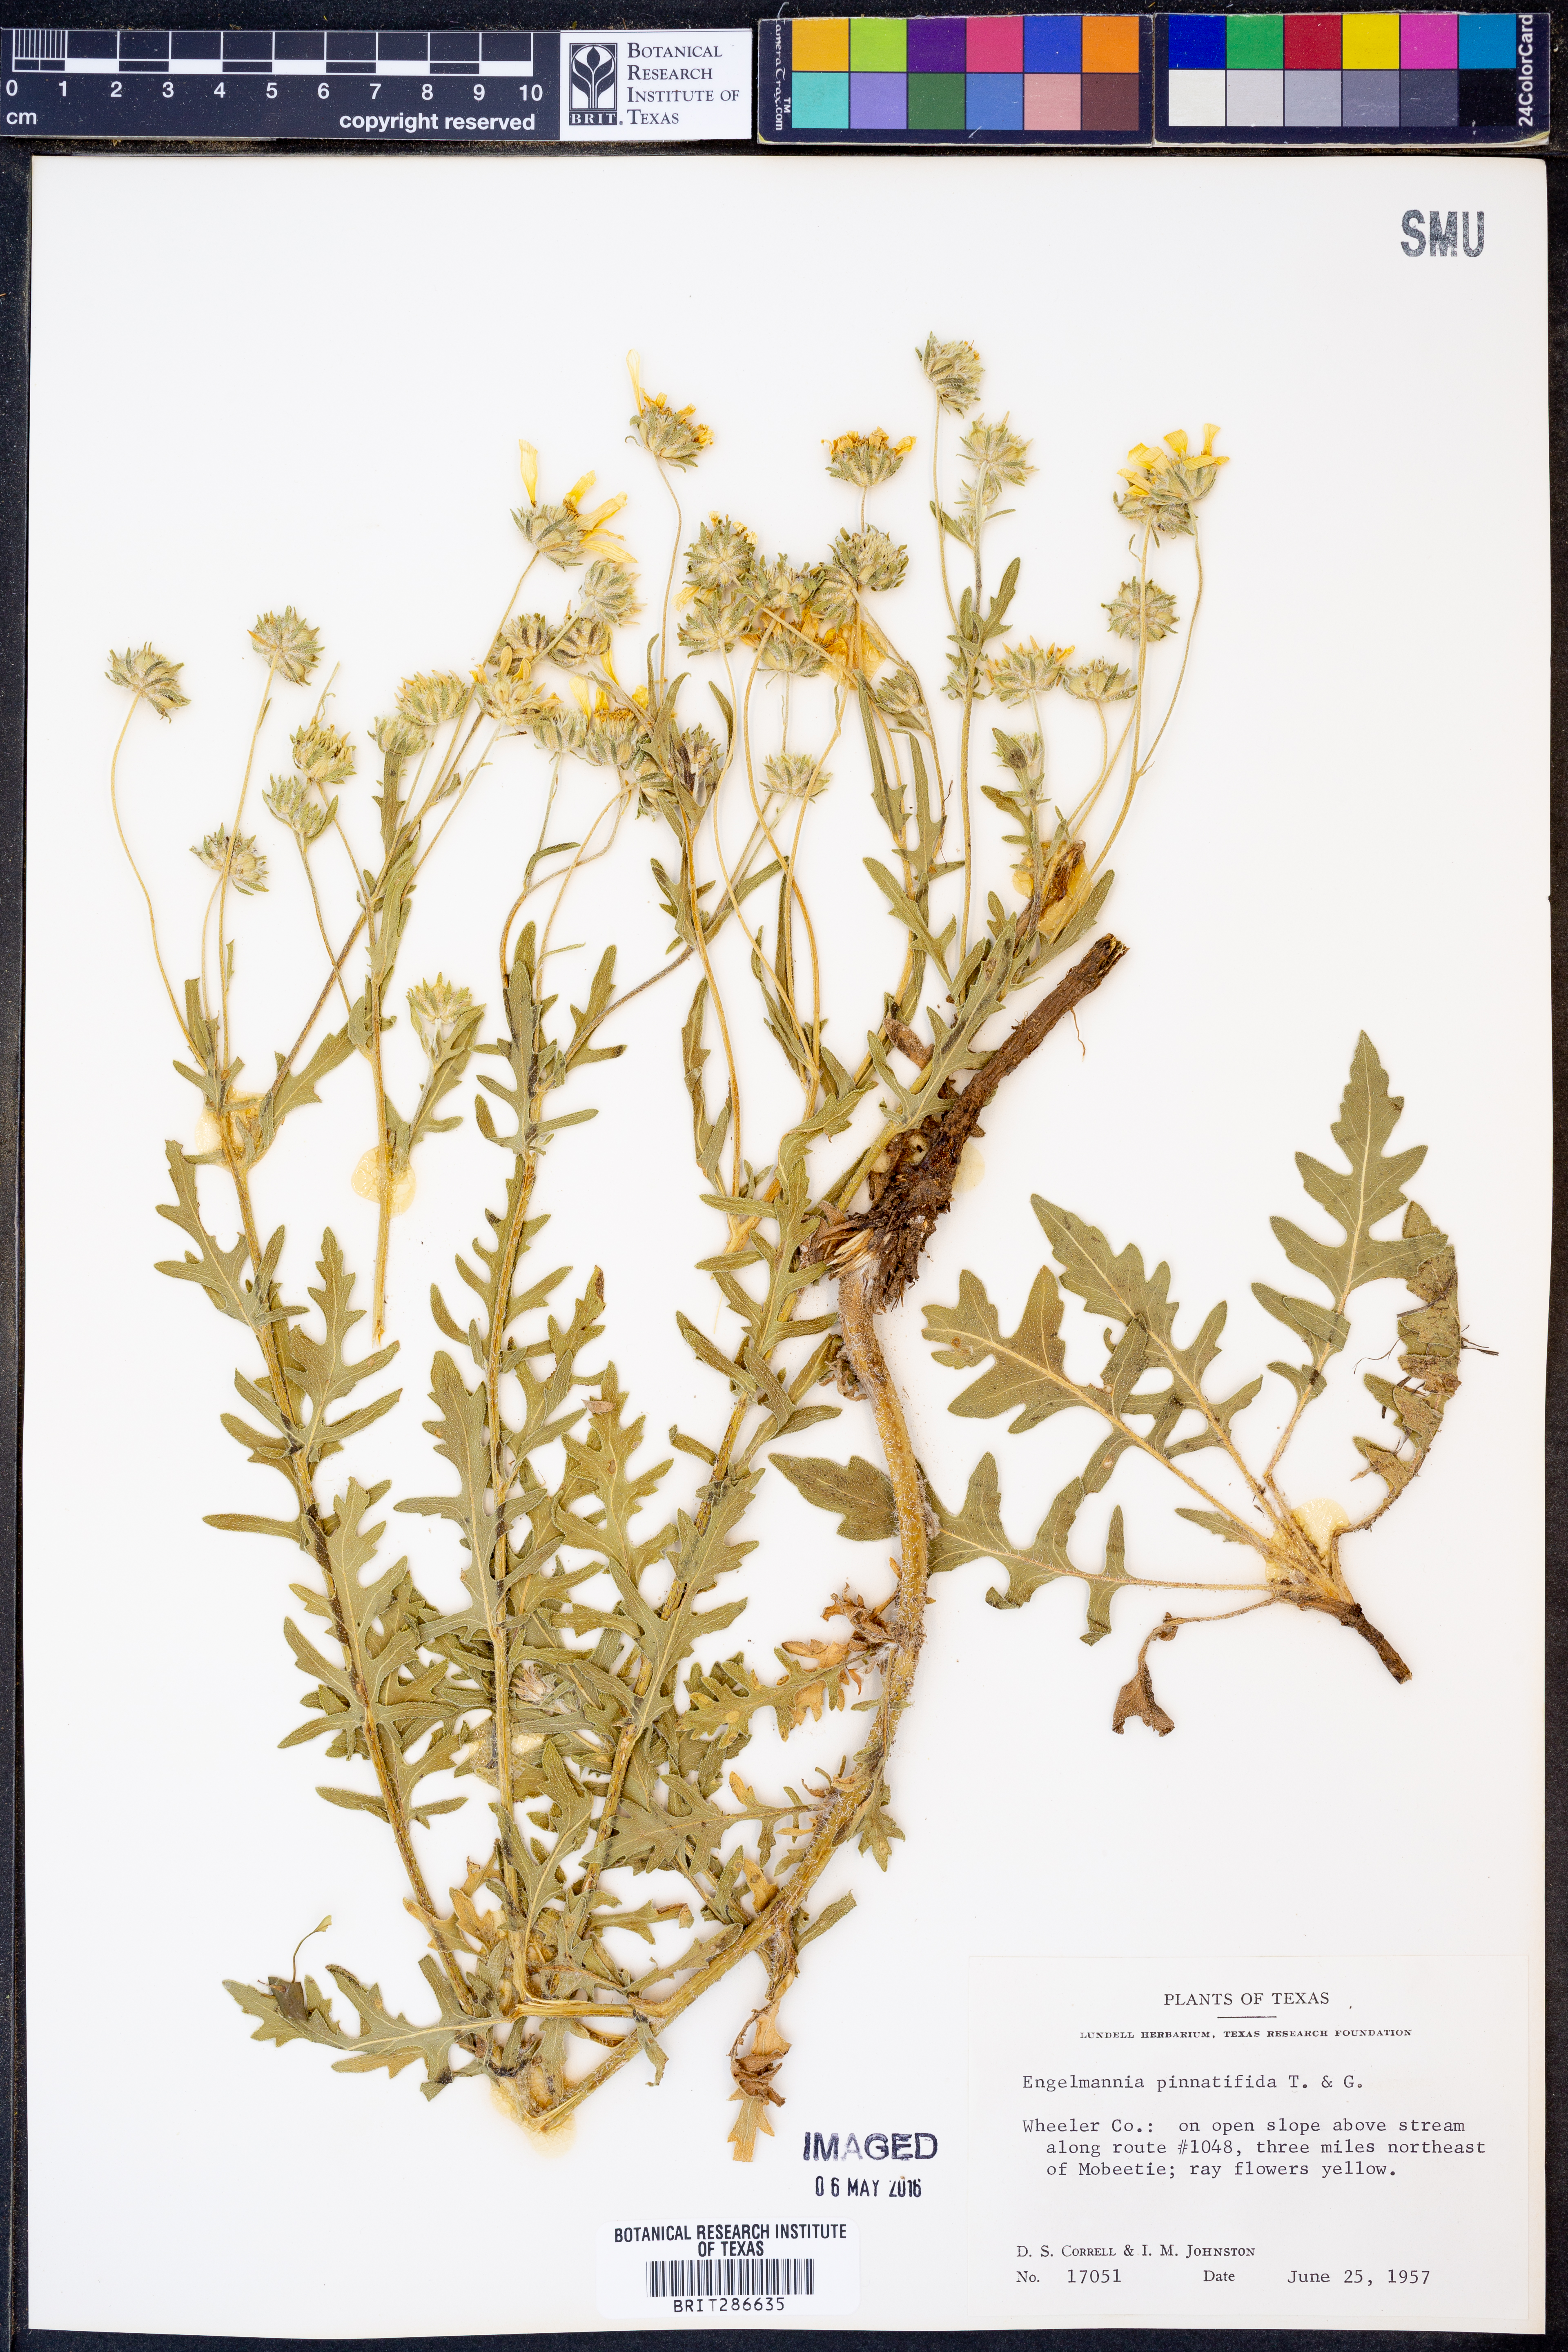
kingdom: Plantae
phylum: Tracheophyta
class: Magnoliopsida
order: Asterales
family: Asteraceae
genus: Engelmannia
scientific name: Engelmannia peristenia
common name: Engelmann's daisy
